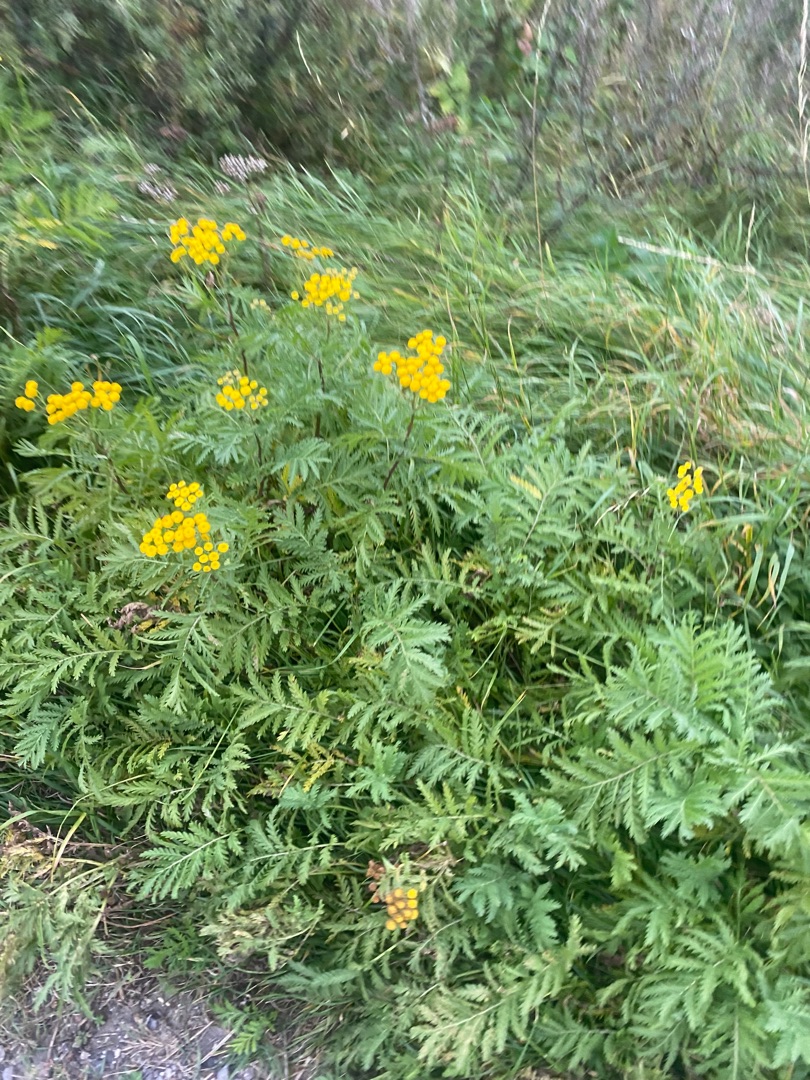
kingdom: Plantae
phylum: Tracheophyta
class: Magnoliopsida
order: Asterales
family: Asteraceae
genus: Tanacetum
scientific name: Tanacetum vulgare
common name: Rejnfan
